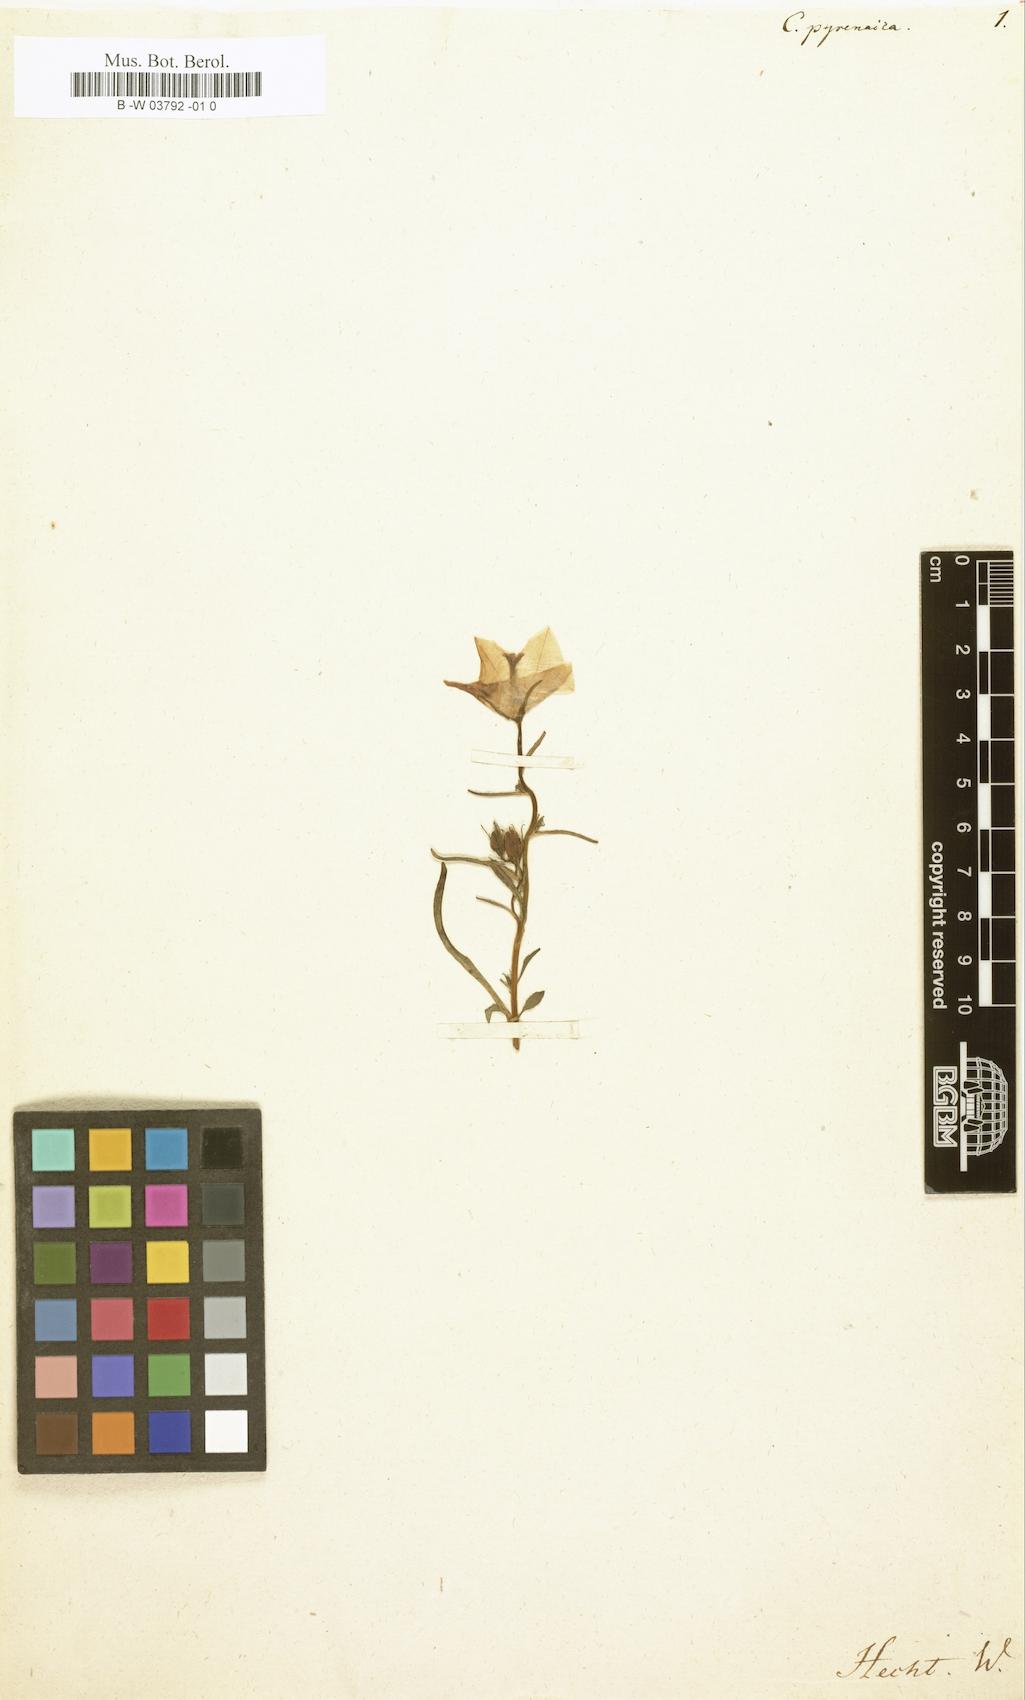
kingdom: Plantae
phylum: Tracheophyta
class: Magnoliopsida
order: Asterales
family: Campanulaceae
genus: Campanula
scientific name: Campanula rapunculoides
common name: Creeping bellflower
